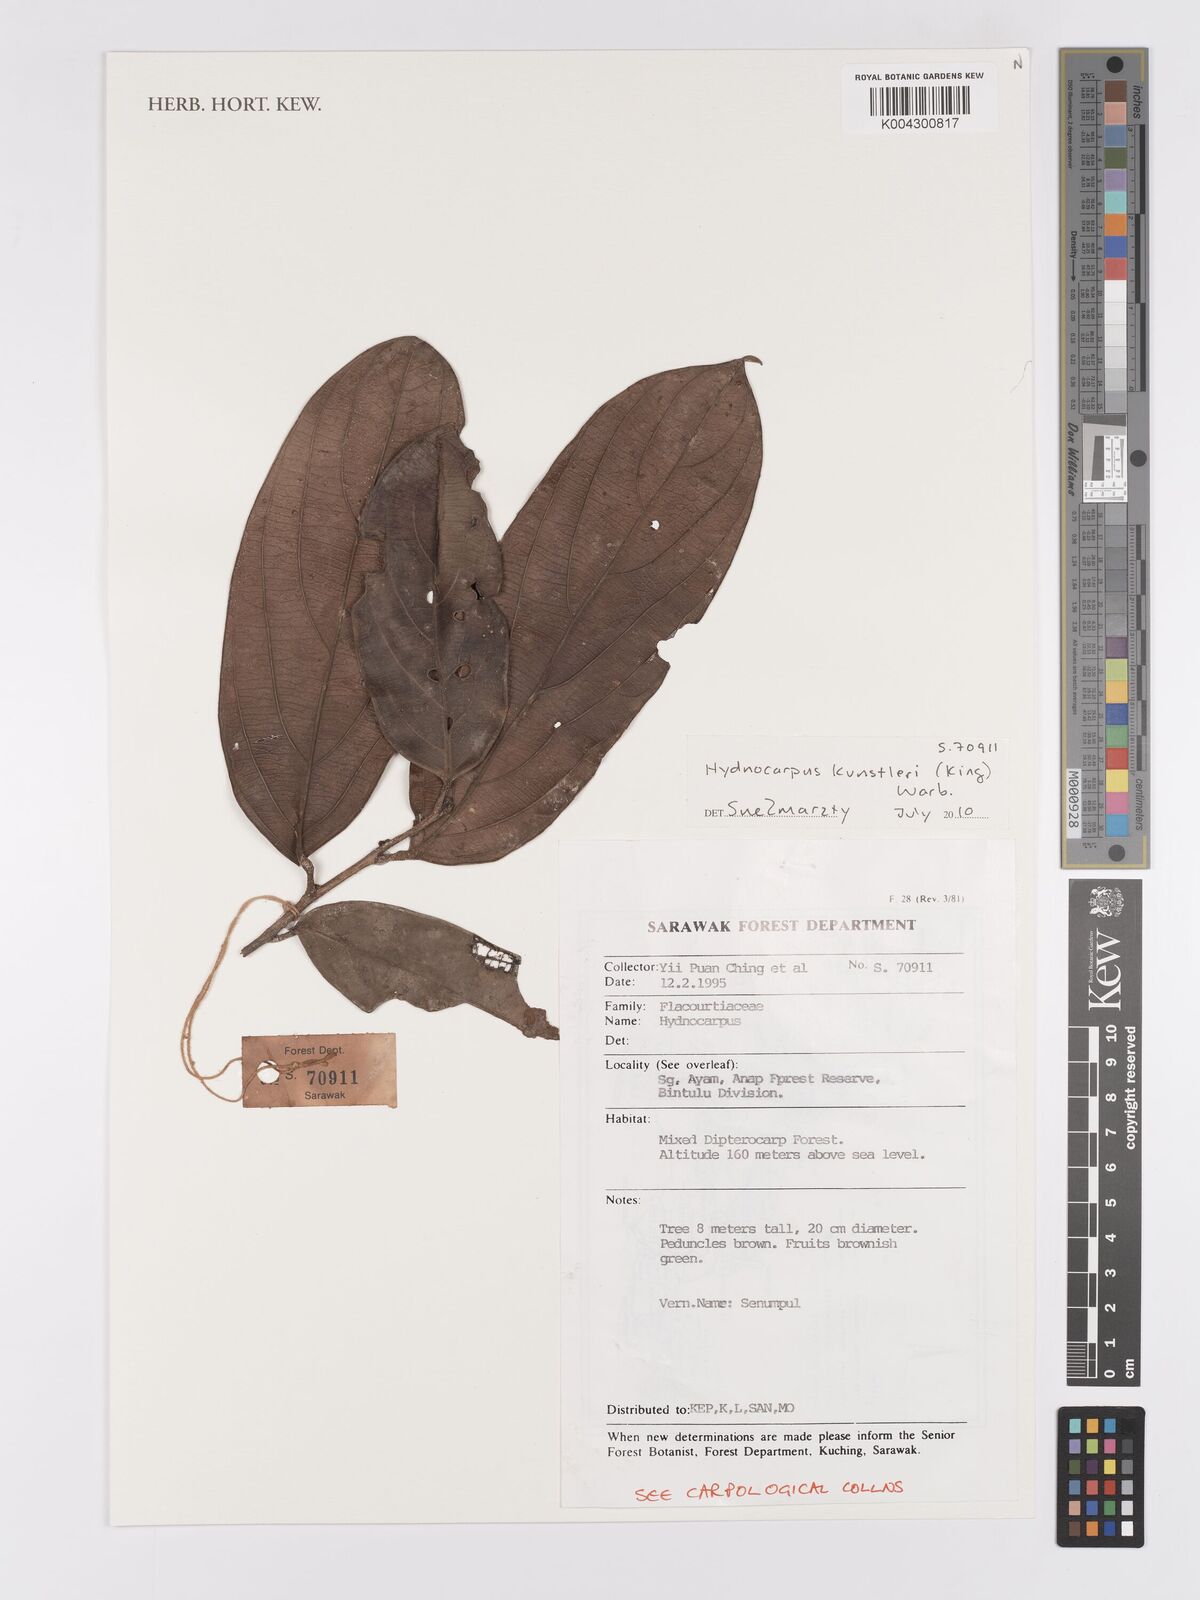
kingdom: Plantae
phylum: Tracheophyta
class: Magnoliopsida
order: Malpighiales
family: Achariaceae
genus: Hydnocarpus
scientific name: Hydnocarpus kunstleri
